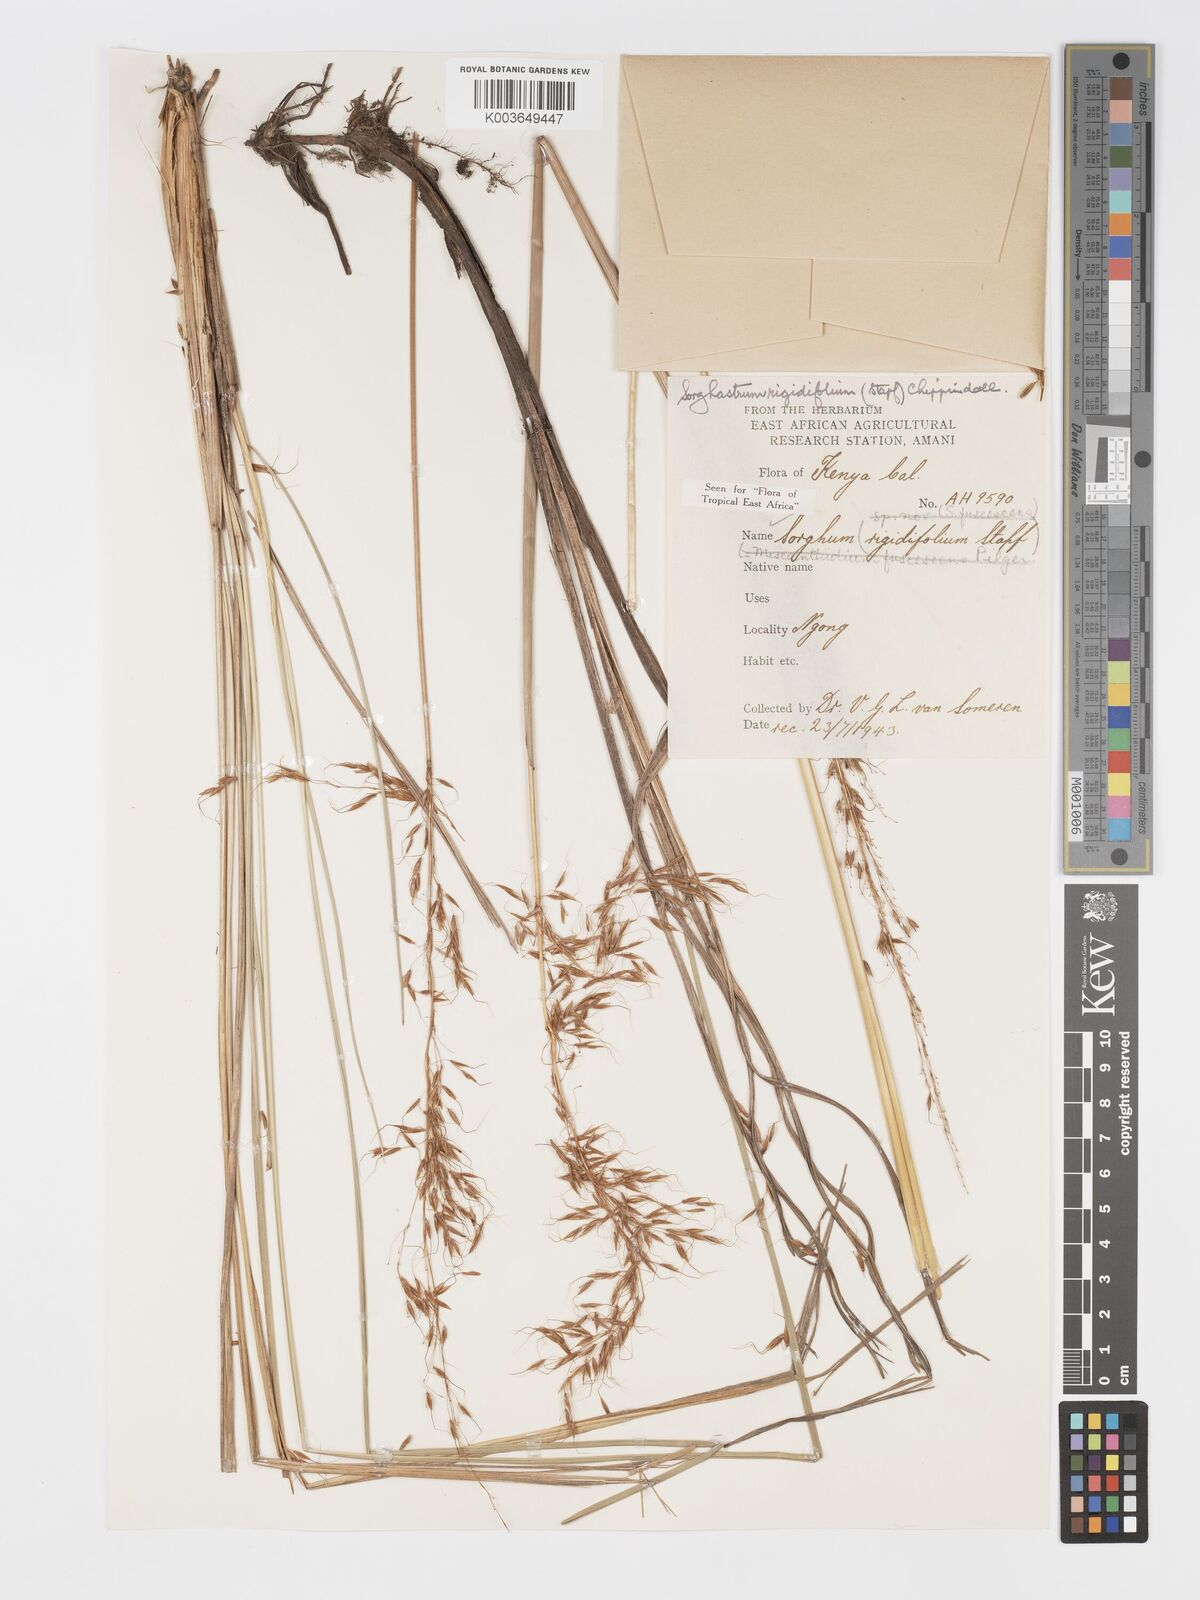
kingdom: Plantae
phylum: Tracheophyta
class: Liliopsida
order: Poales
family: Poaceae
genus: Sorghastrum
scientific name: Sorghastrum stipoides
